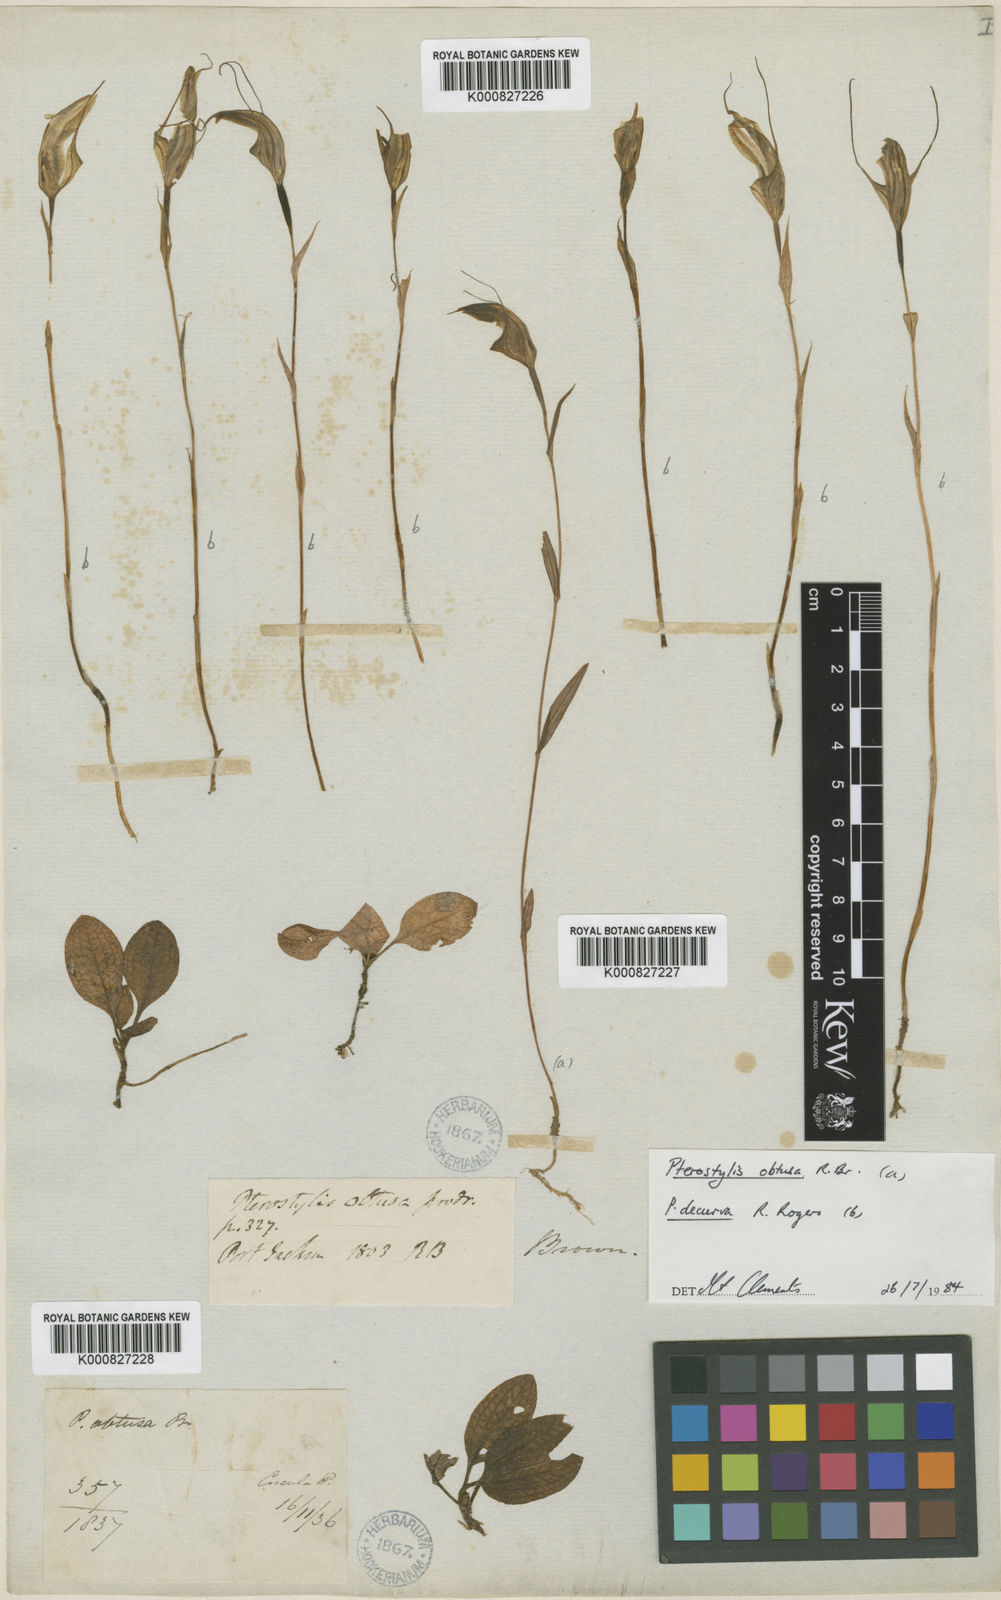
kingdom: Plantae
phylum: Tracheophyta
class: Liliopsida
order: Asparagales
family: Orchidaceae
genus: Pterostylis
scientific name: Pterostylis obtusa
